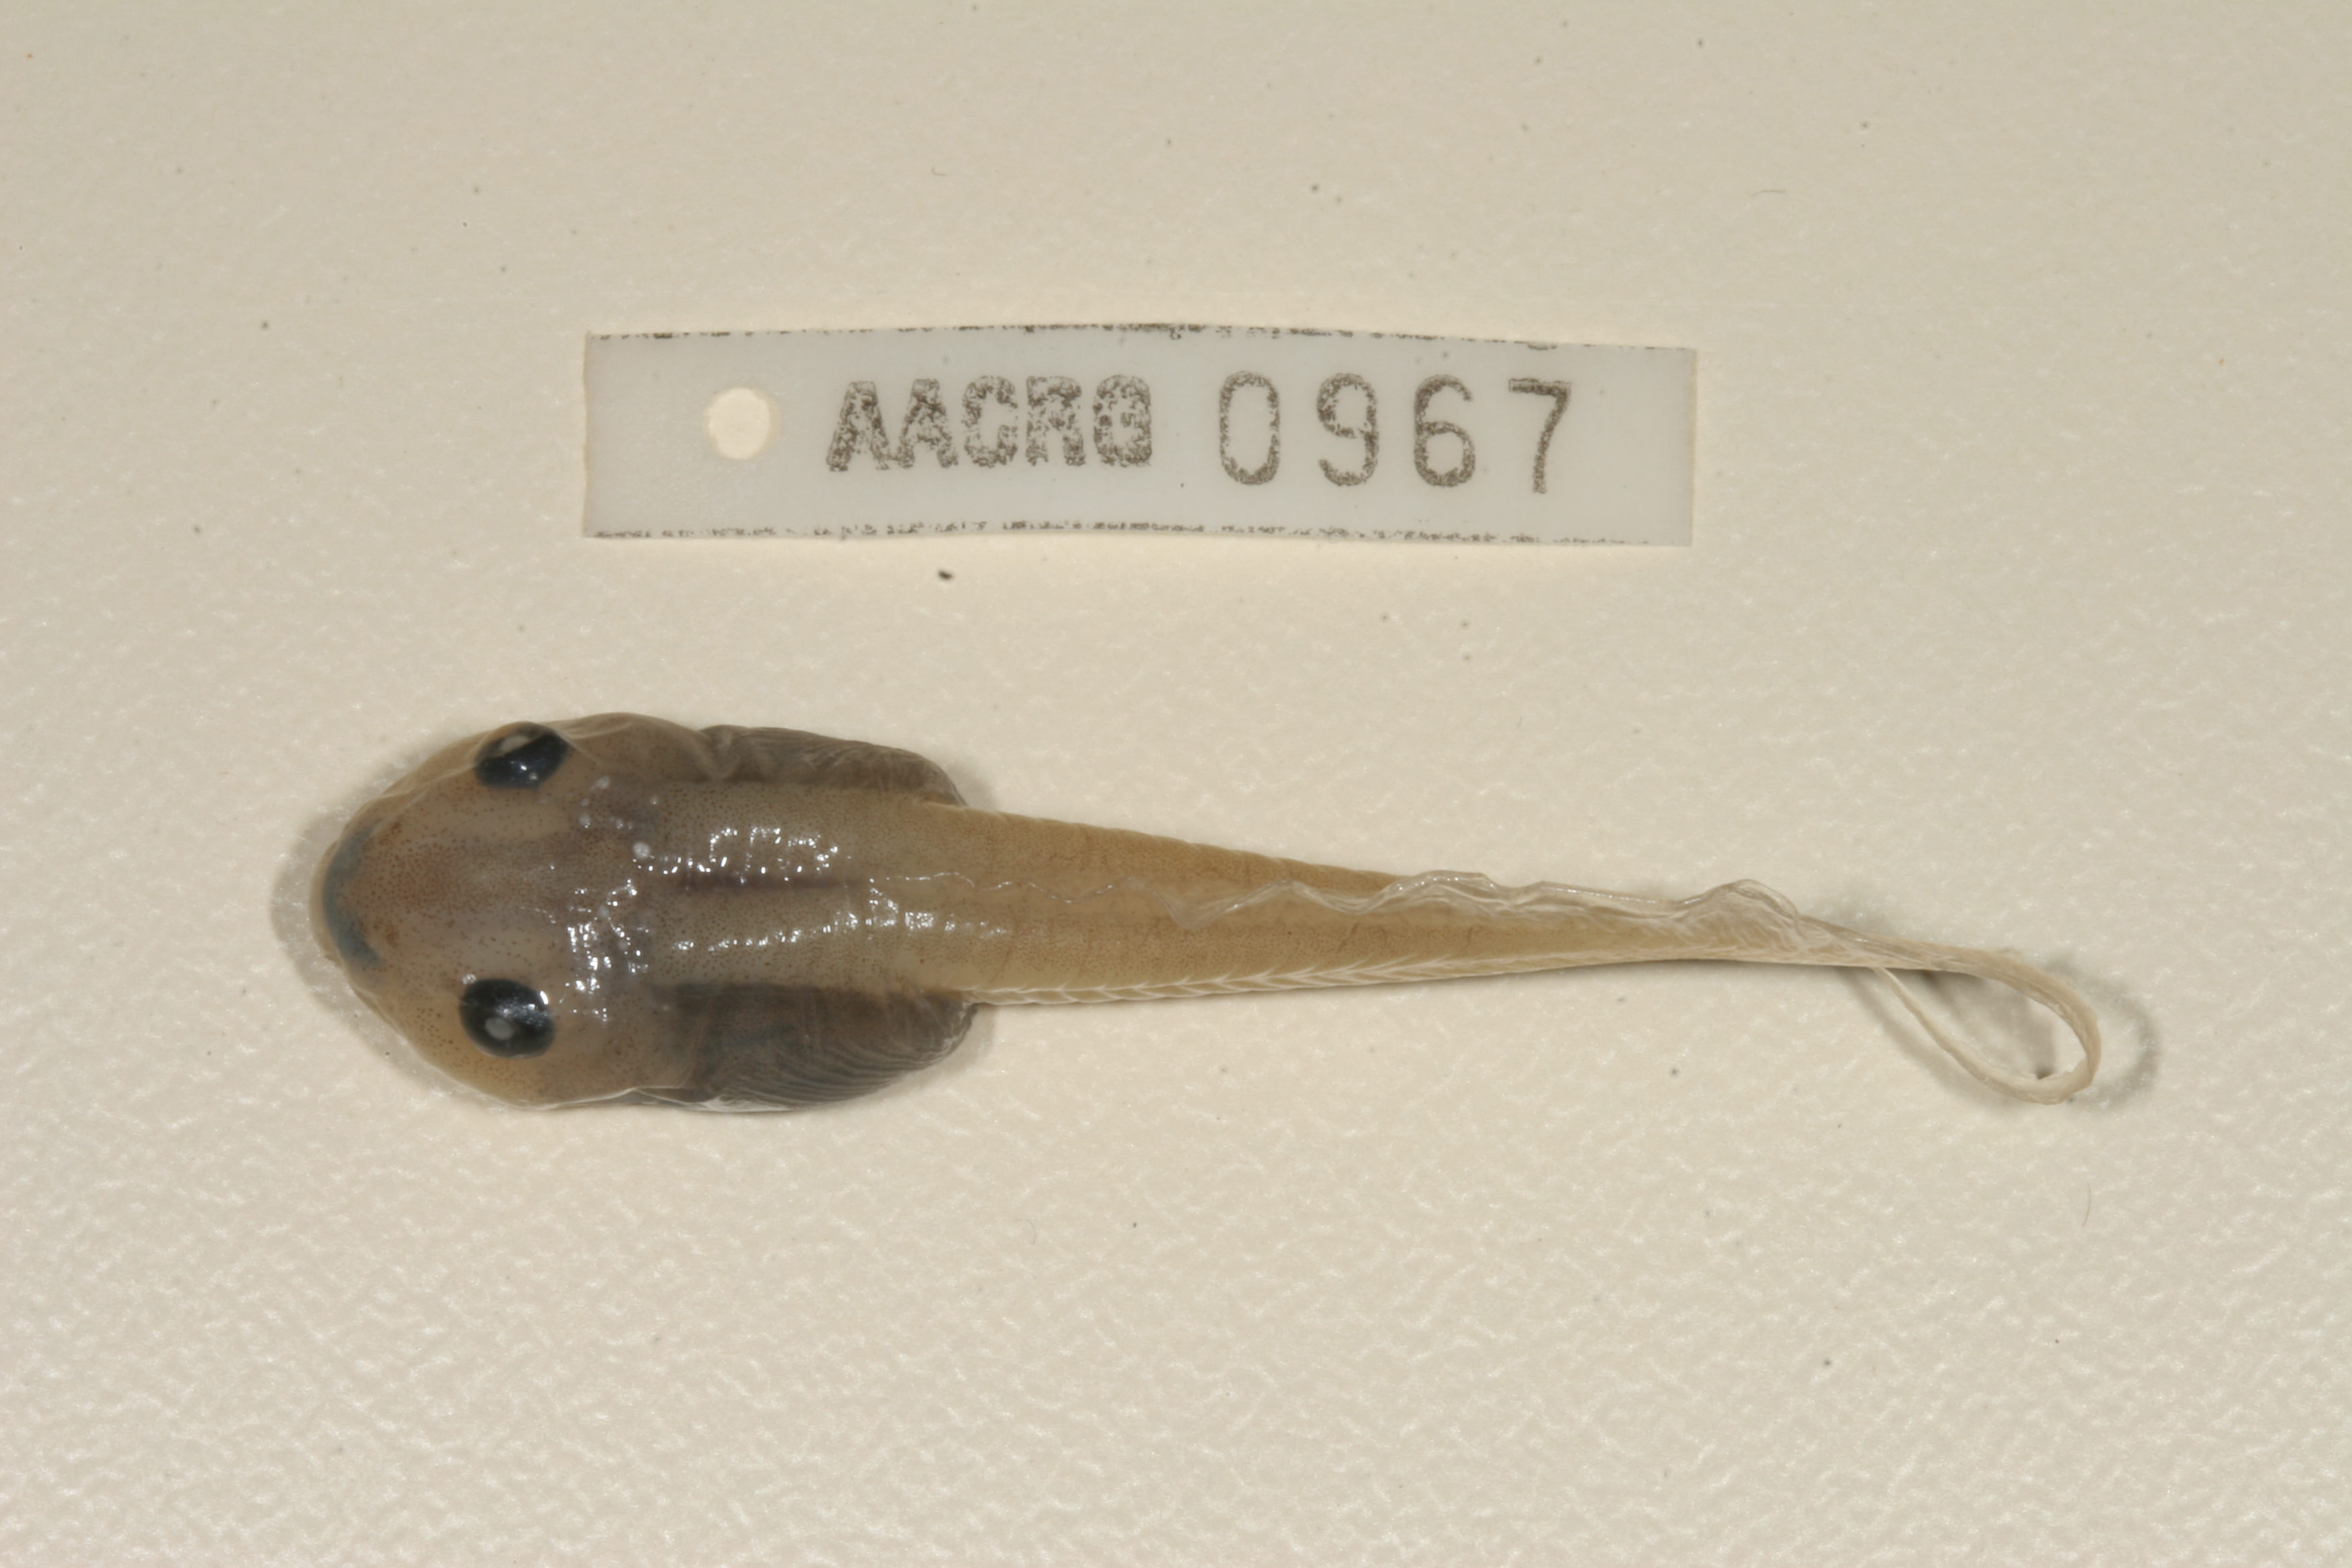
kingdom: Animalia
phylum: Chordata
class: Amphibia
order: Anura
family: Ptychadenidae
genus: Hildebrandtia
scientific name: Hildebrandtia ornata
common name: Ornate frog
